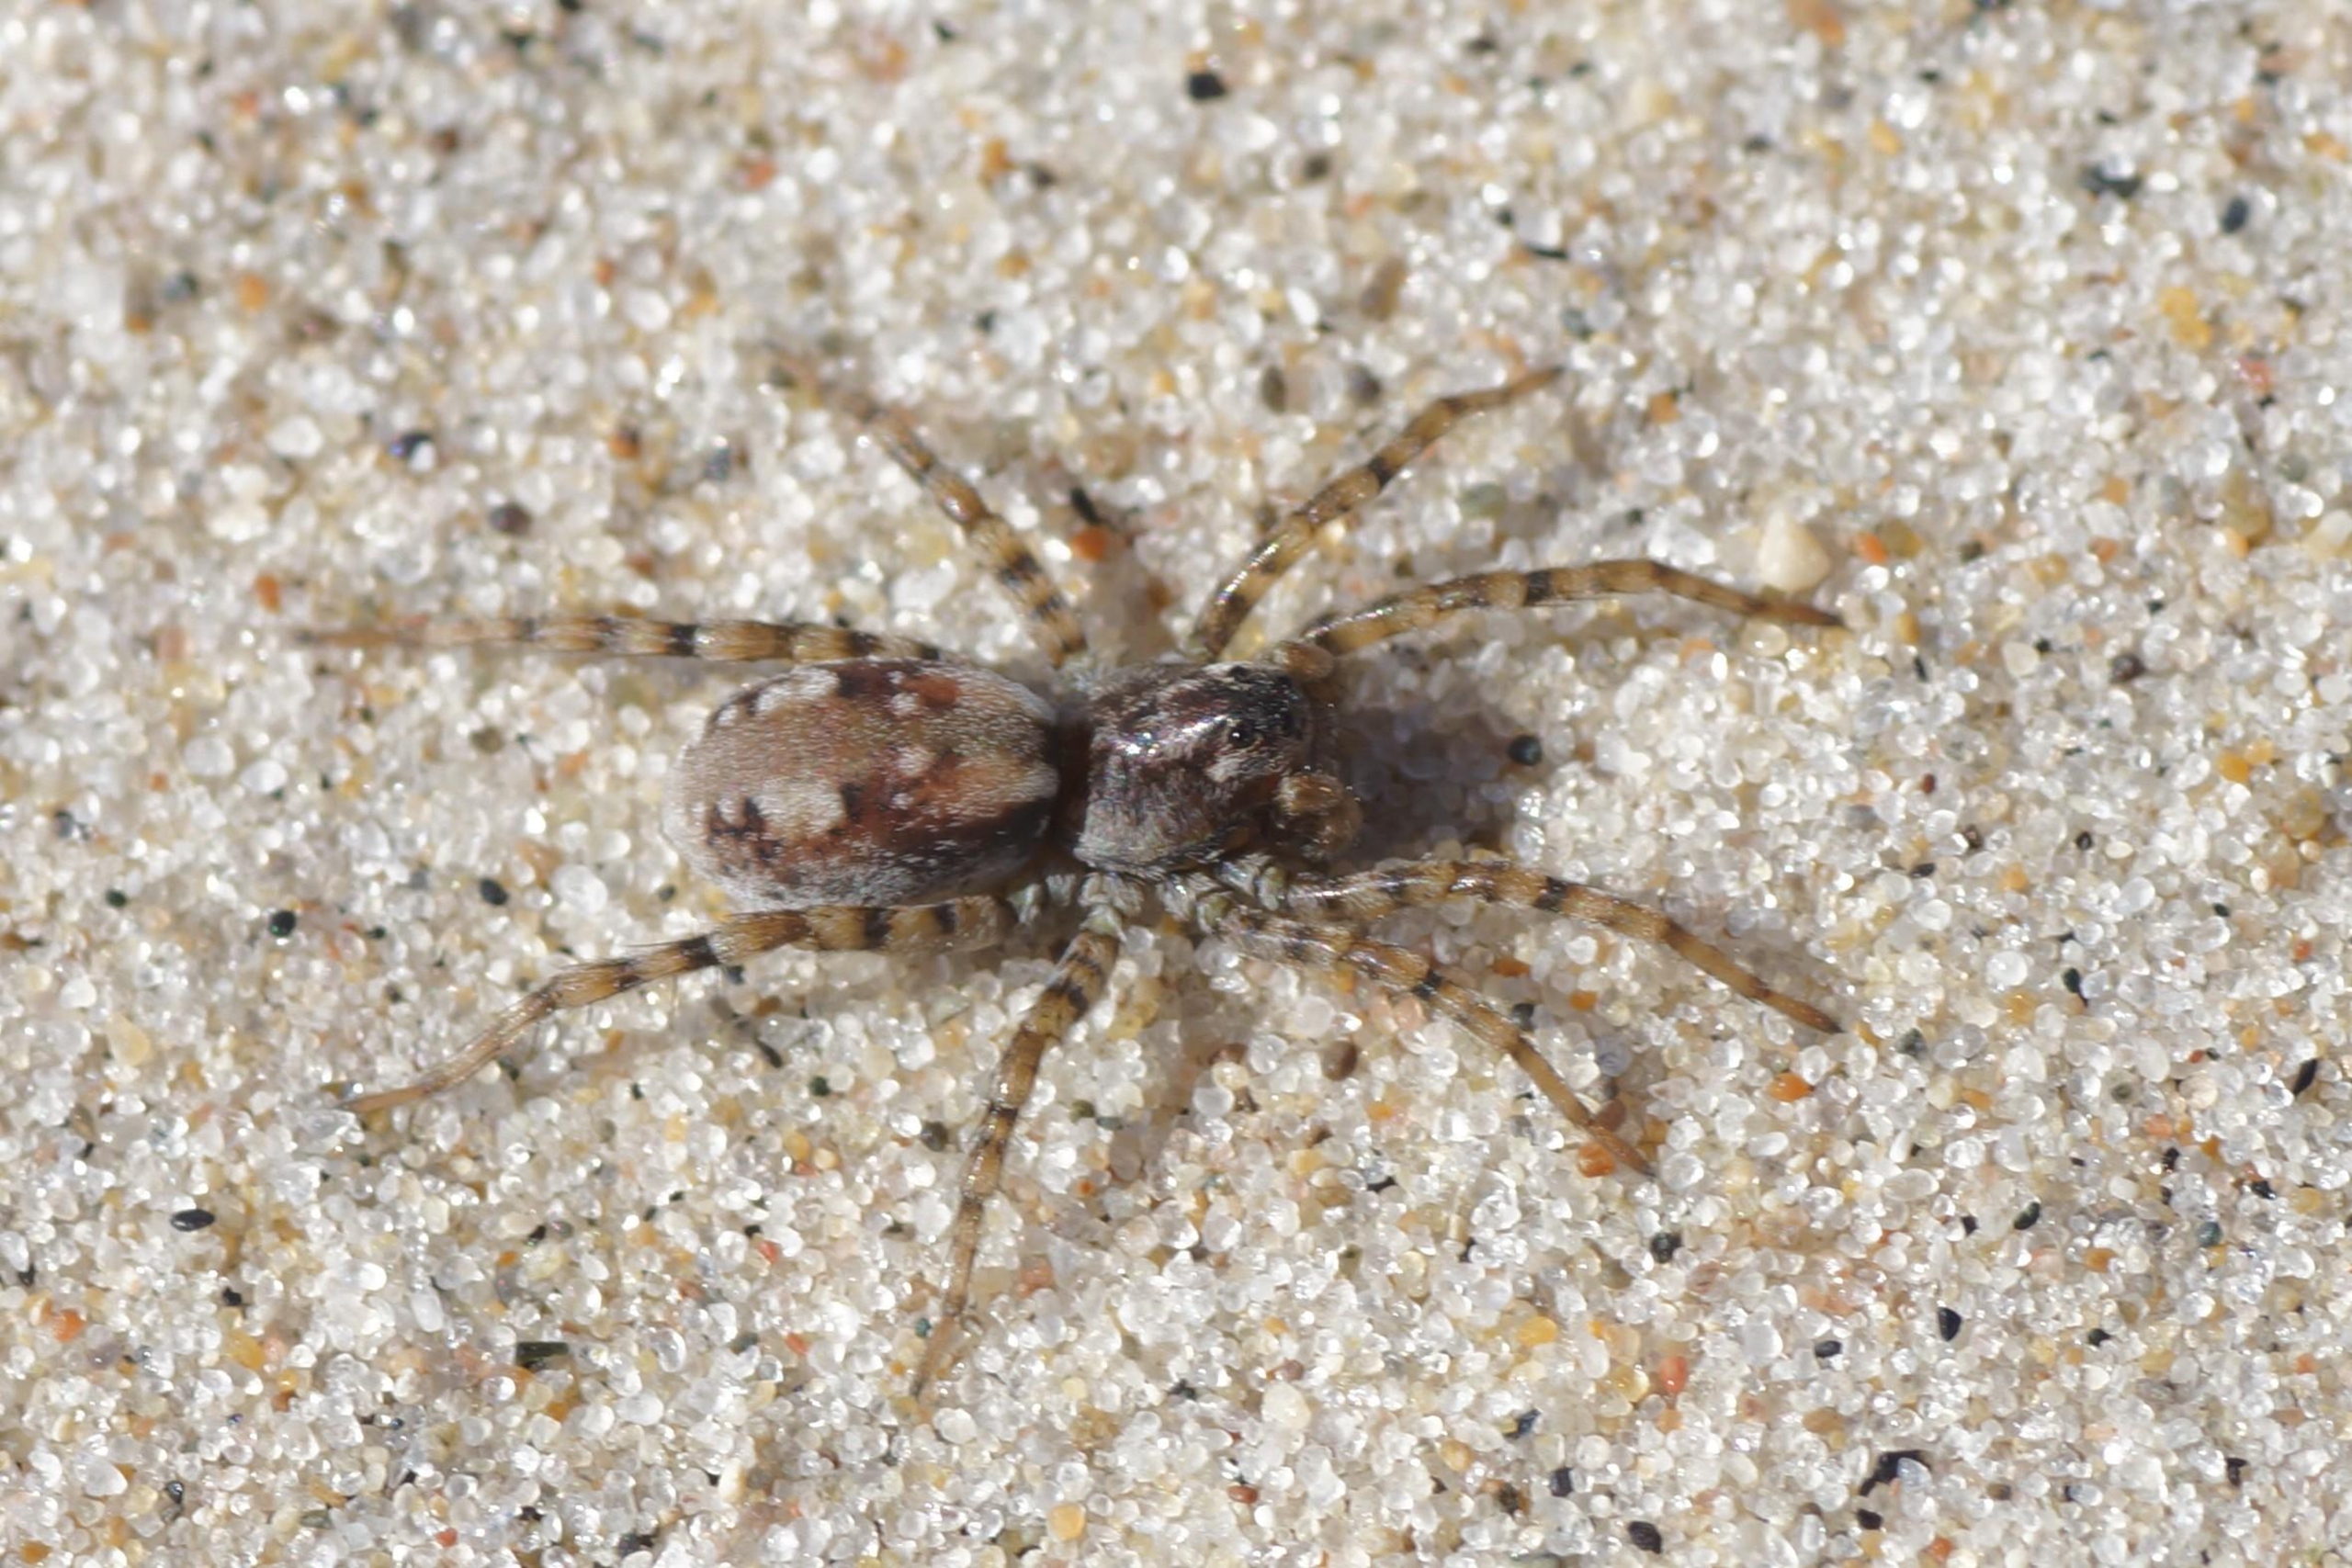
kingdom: Animalia
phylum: Arthropoda
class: Arachnida
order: Araneae
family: Lycosidae
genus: Arctosa
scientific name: Arctosa perita
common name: Klitgraveedderkop
